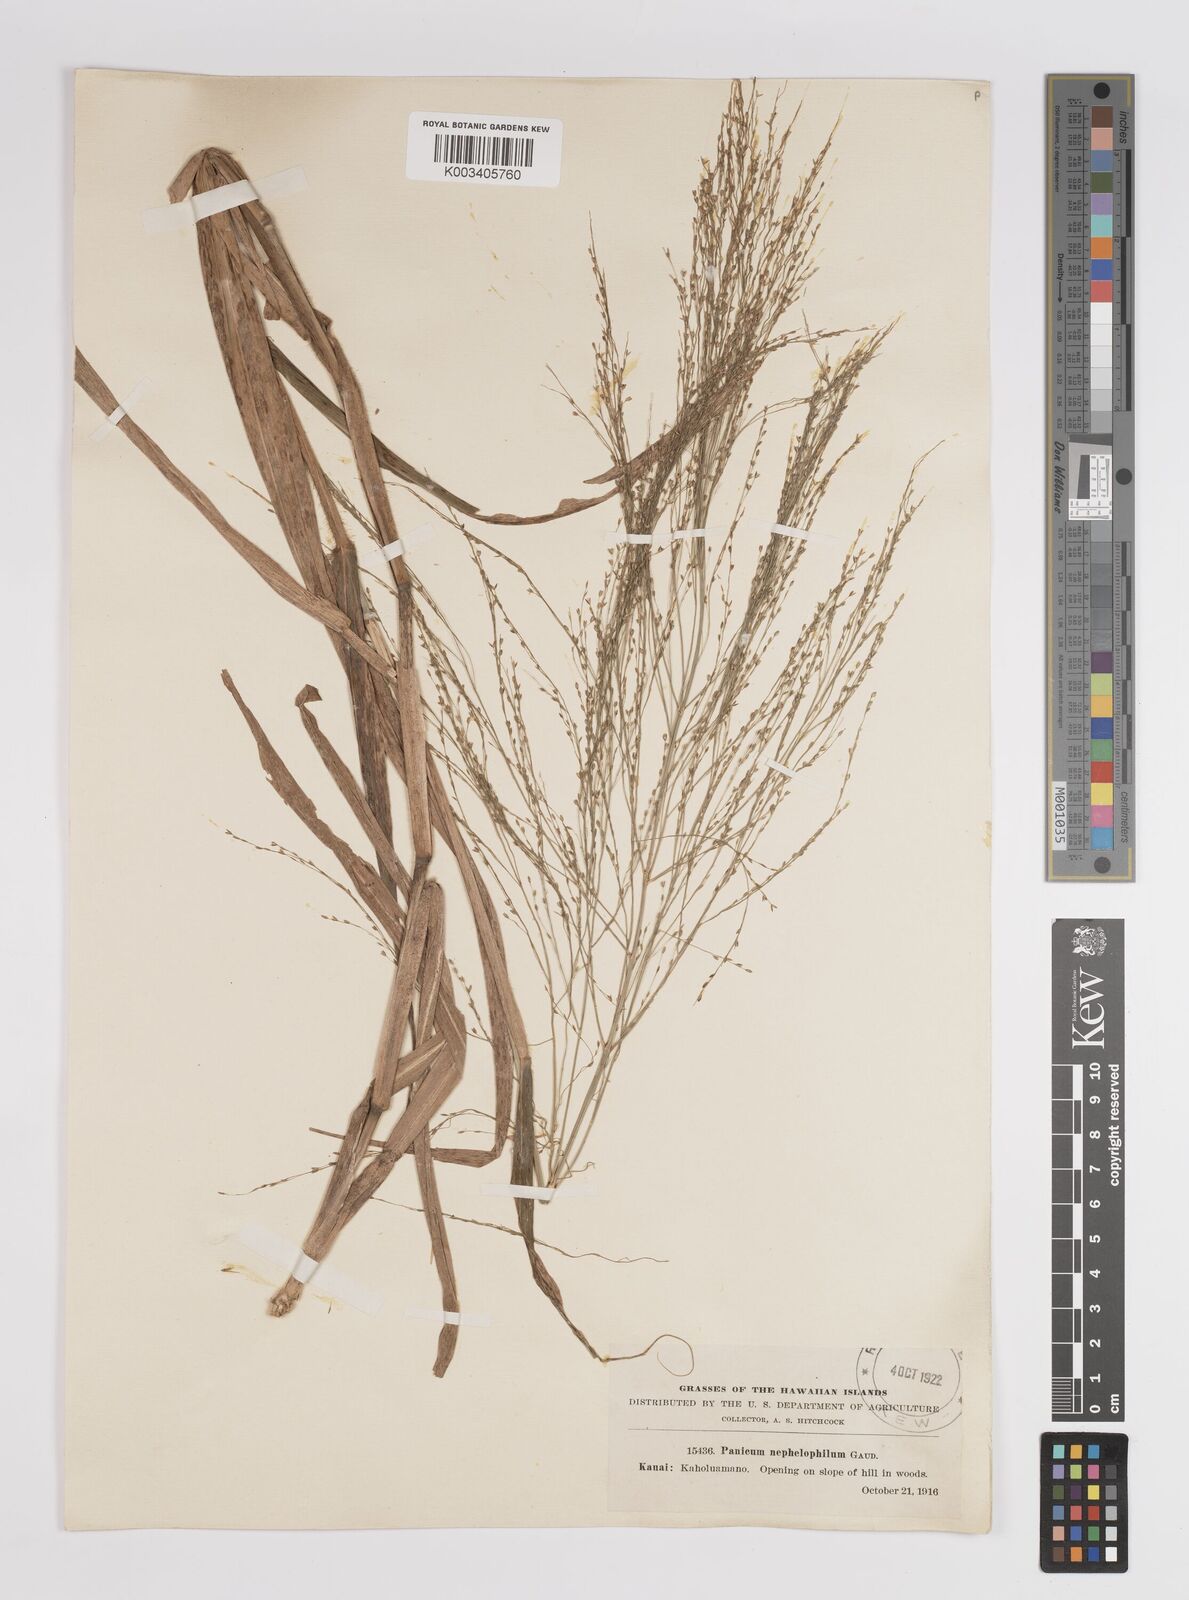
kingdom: Plantae
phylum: Tracheophyta
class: Liliopsida
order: Poales
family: Poaceae
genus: Panicum
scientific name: Panicum nephelophilum
